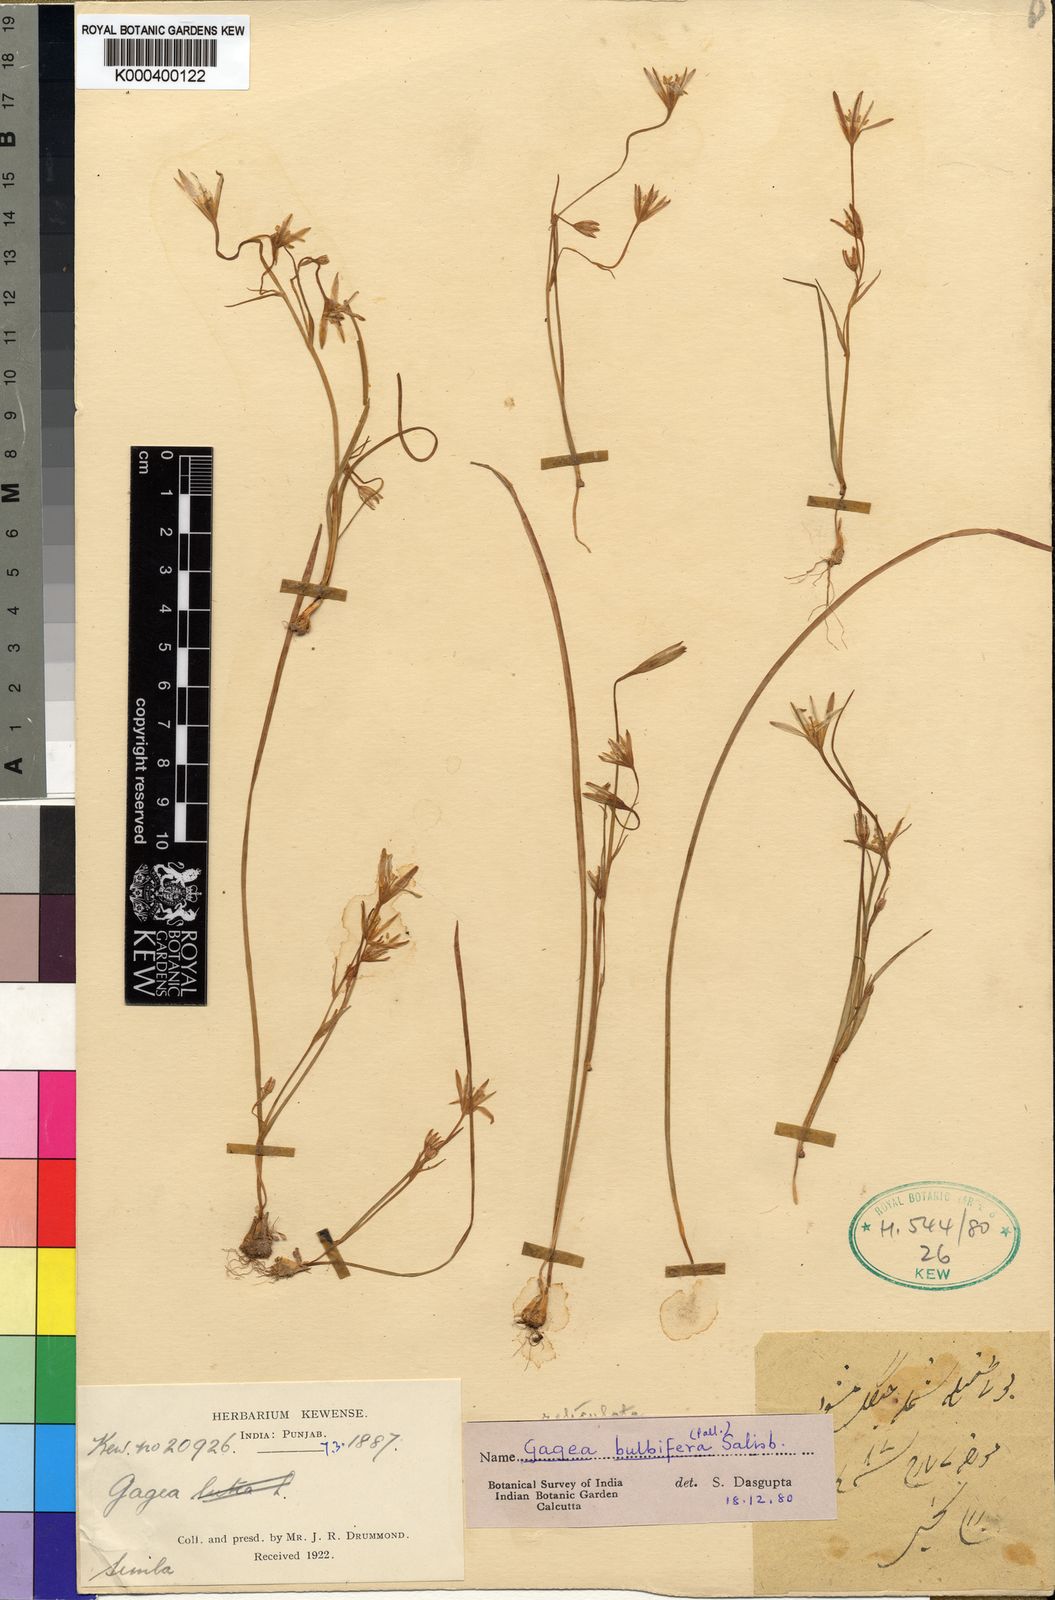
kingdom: Plantae
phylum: Tracheophyta
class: Liliopsida
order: Liliales
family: Liliaceae
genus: Gagea
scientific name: Gagea bulbifera
